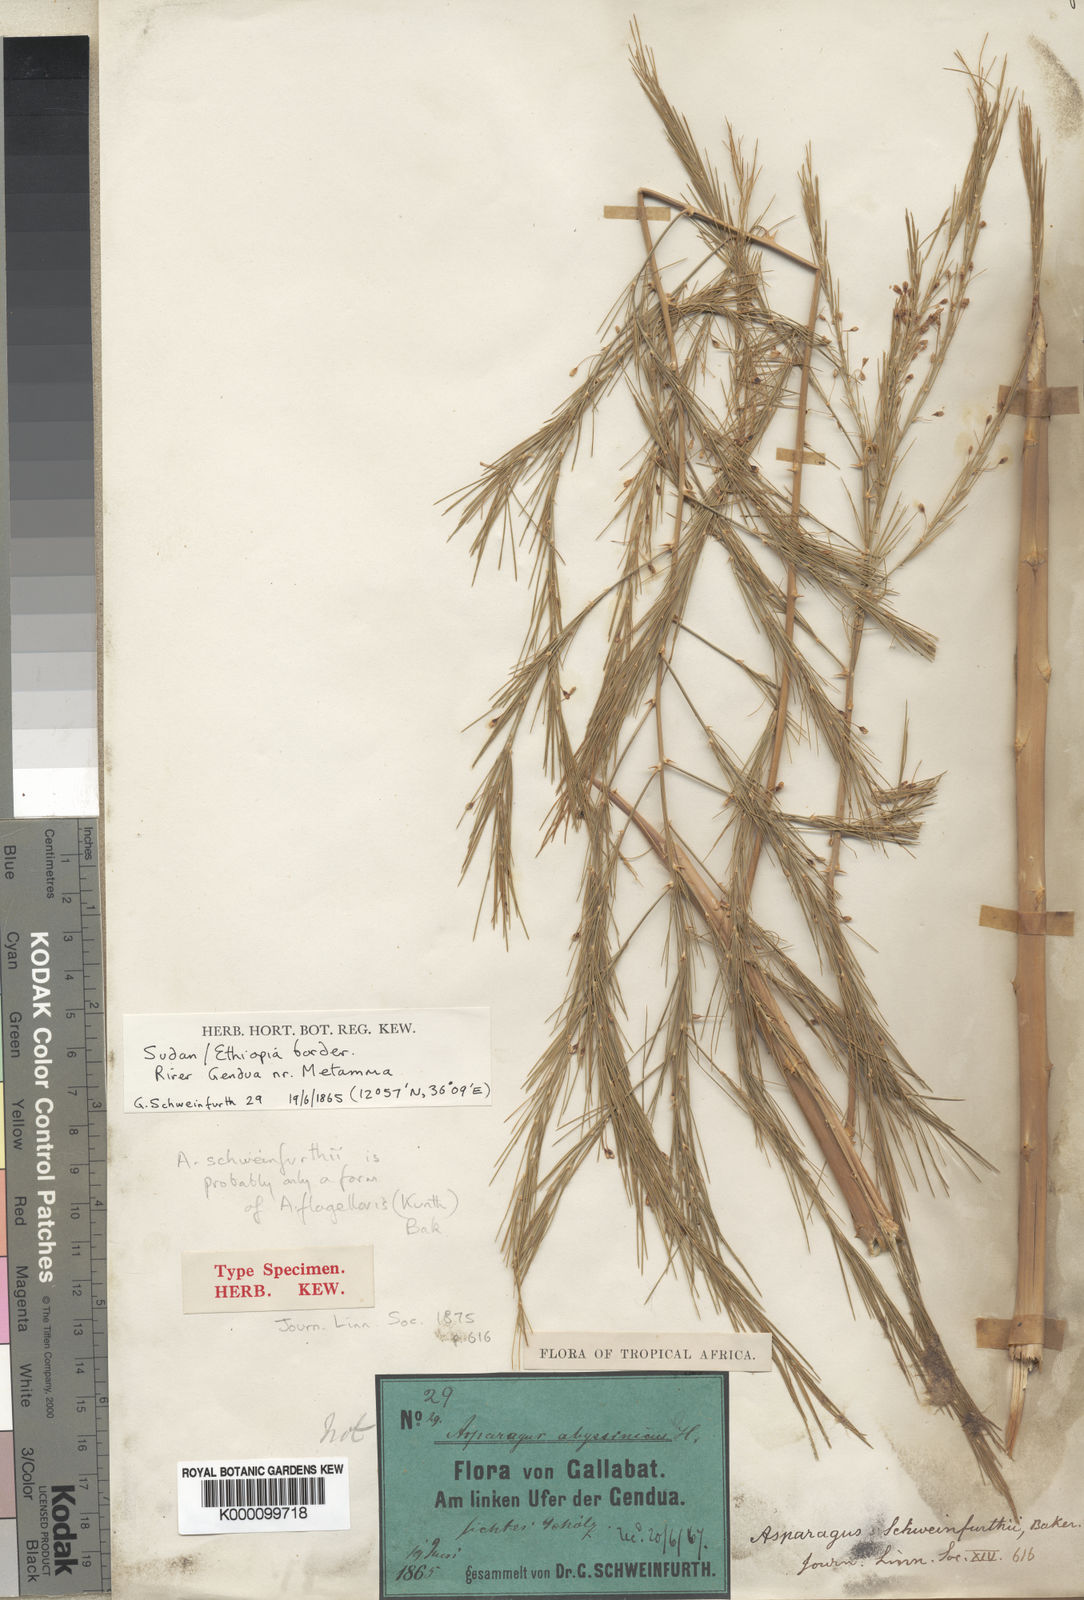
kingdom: Plantae
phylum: Tracheophyta
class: Liliopsida
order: Asparagales
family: Asparagaceae
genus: Asparagus
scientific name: Asparagus flagellaris
